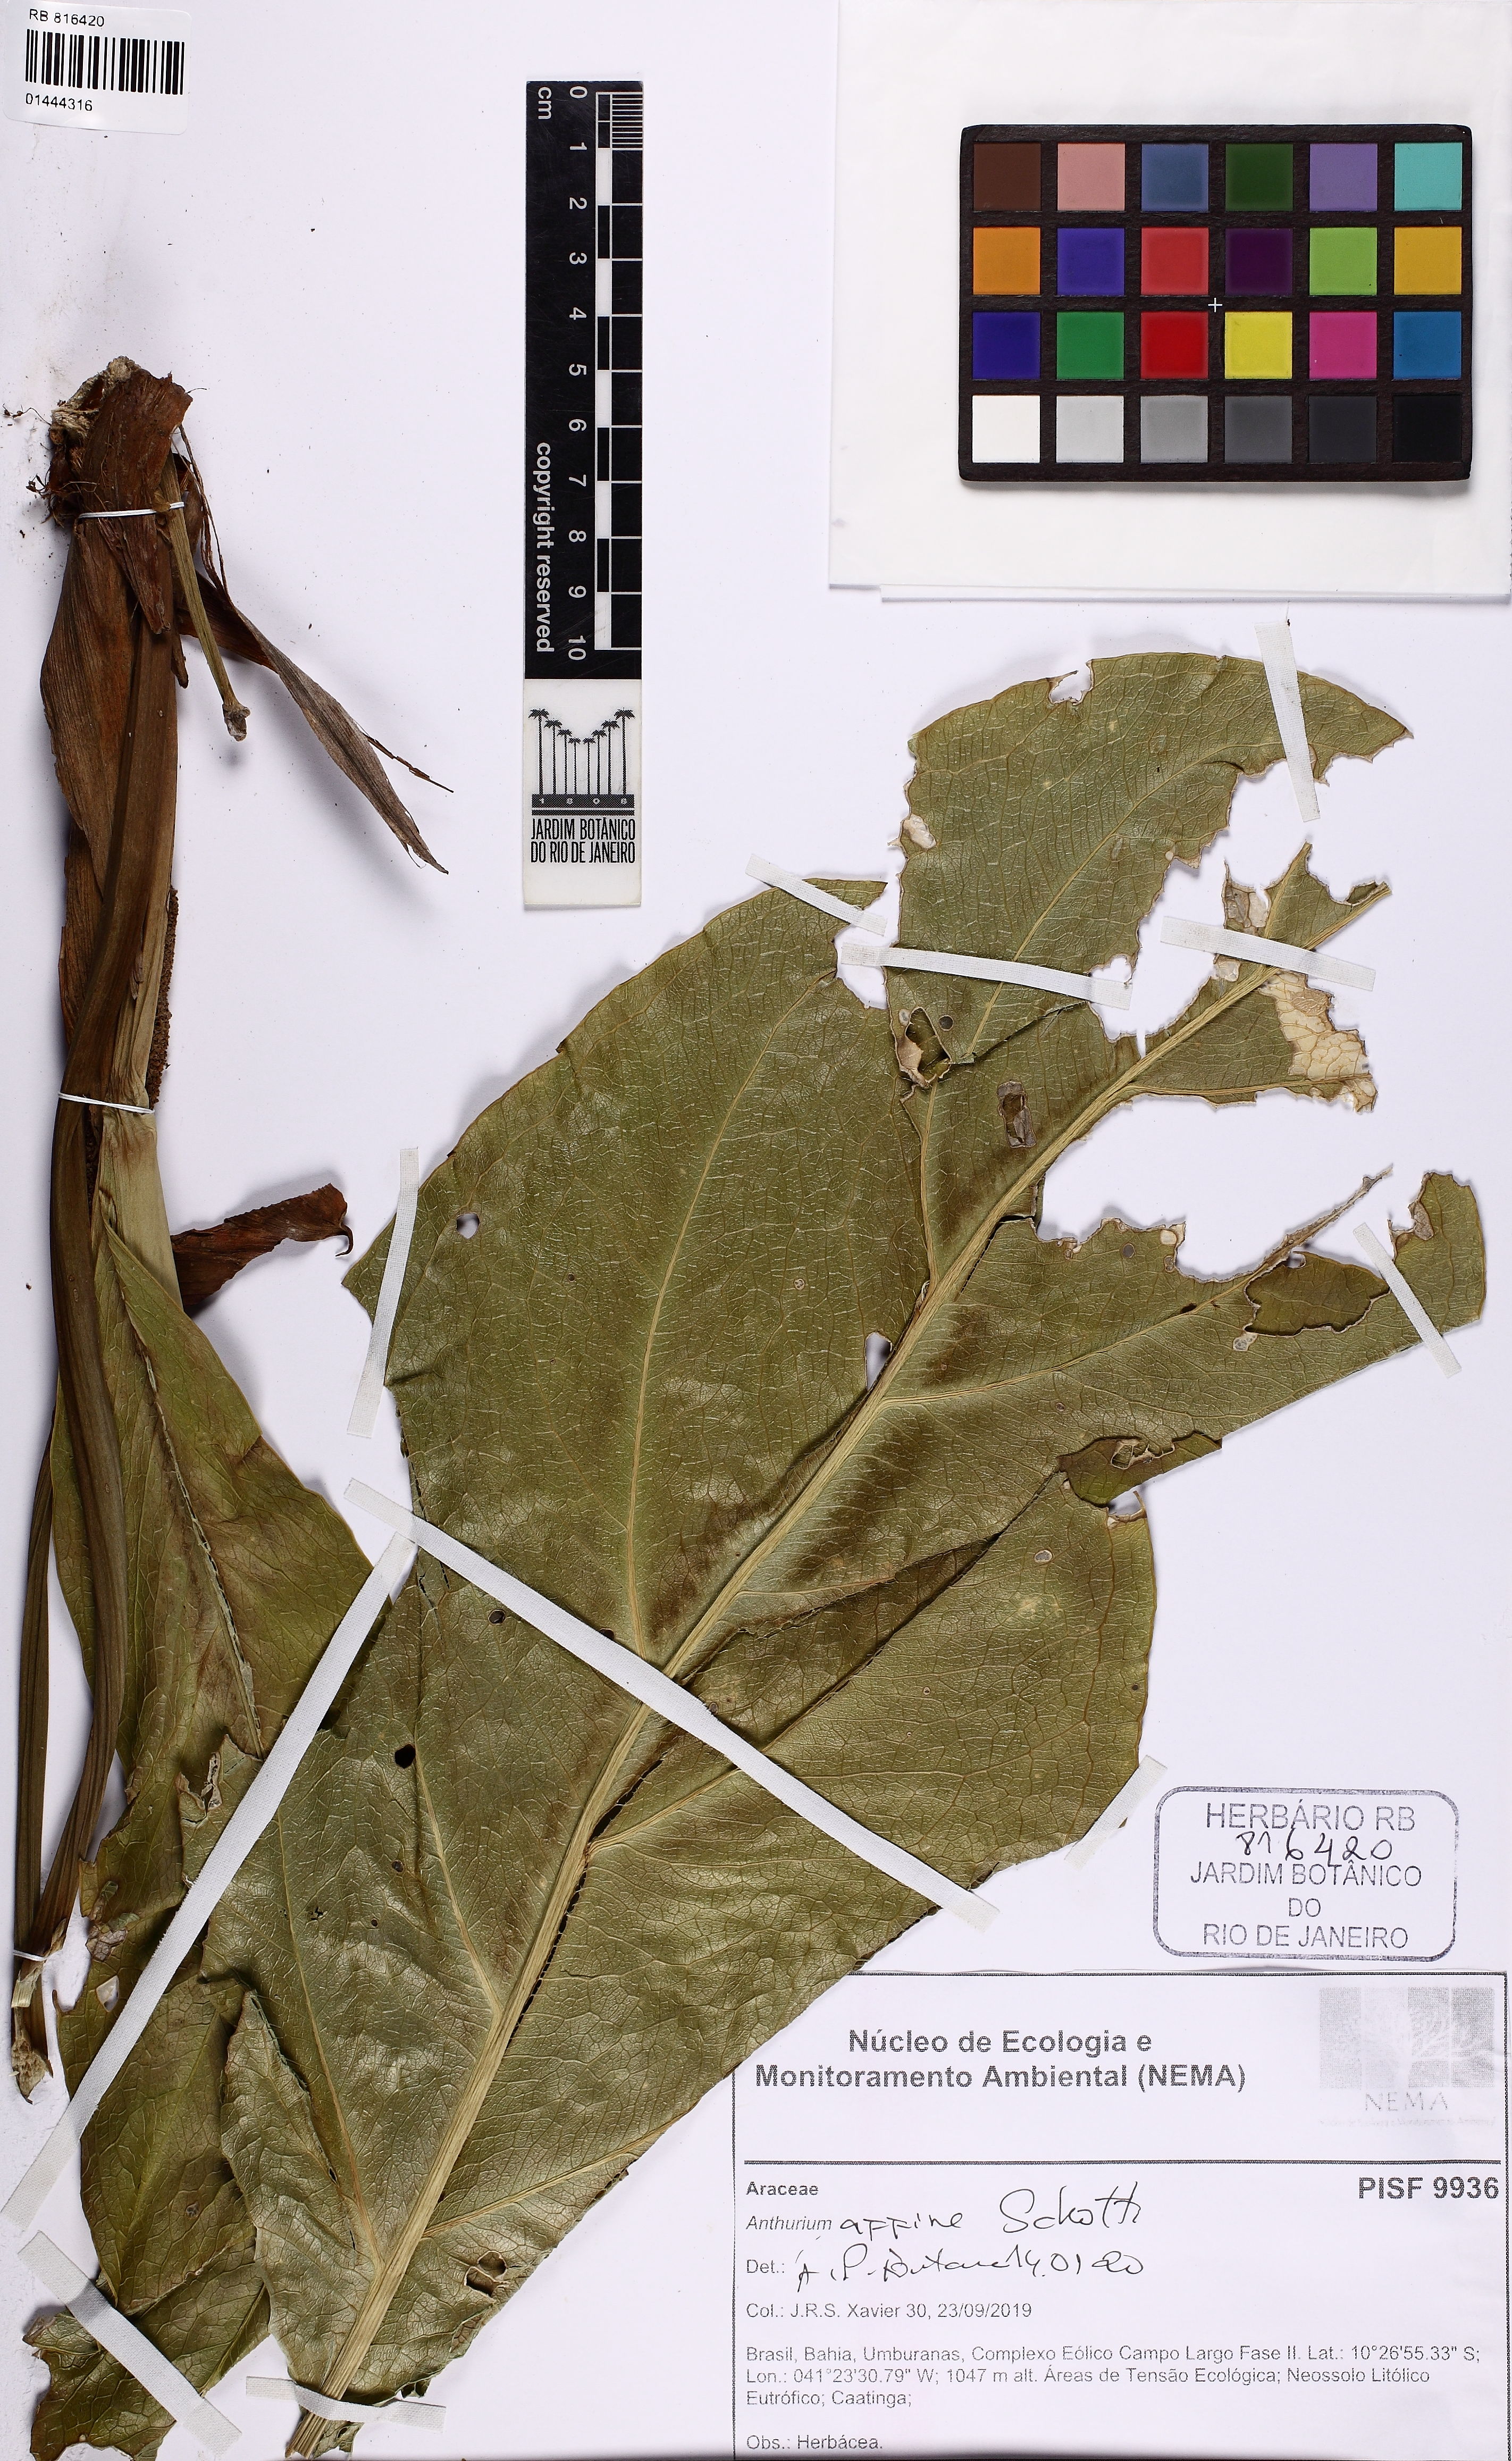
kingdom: Plantae
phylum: Tracheophyta
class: Liliopsida
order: Alismatales
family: Araceae
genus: Anthurium
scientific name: Anthurium affine
